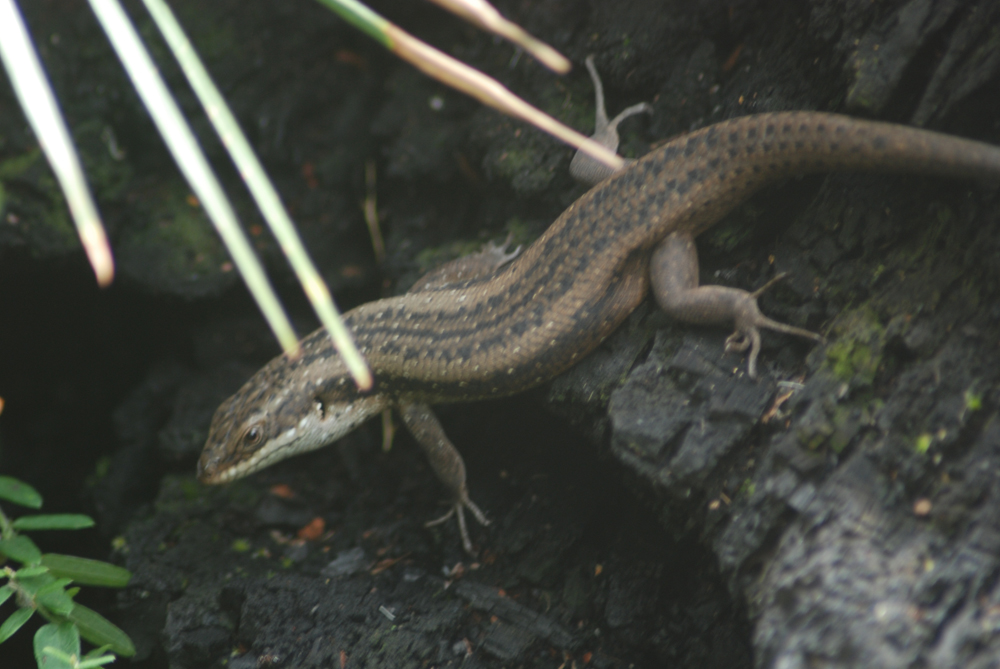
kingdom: Animalia
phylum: Chordata
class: Squamata
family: Scincidae
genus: Egernia
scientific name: Egernia napoleonis
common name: South-western crevice skink
